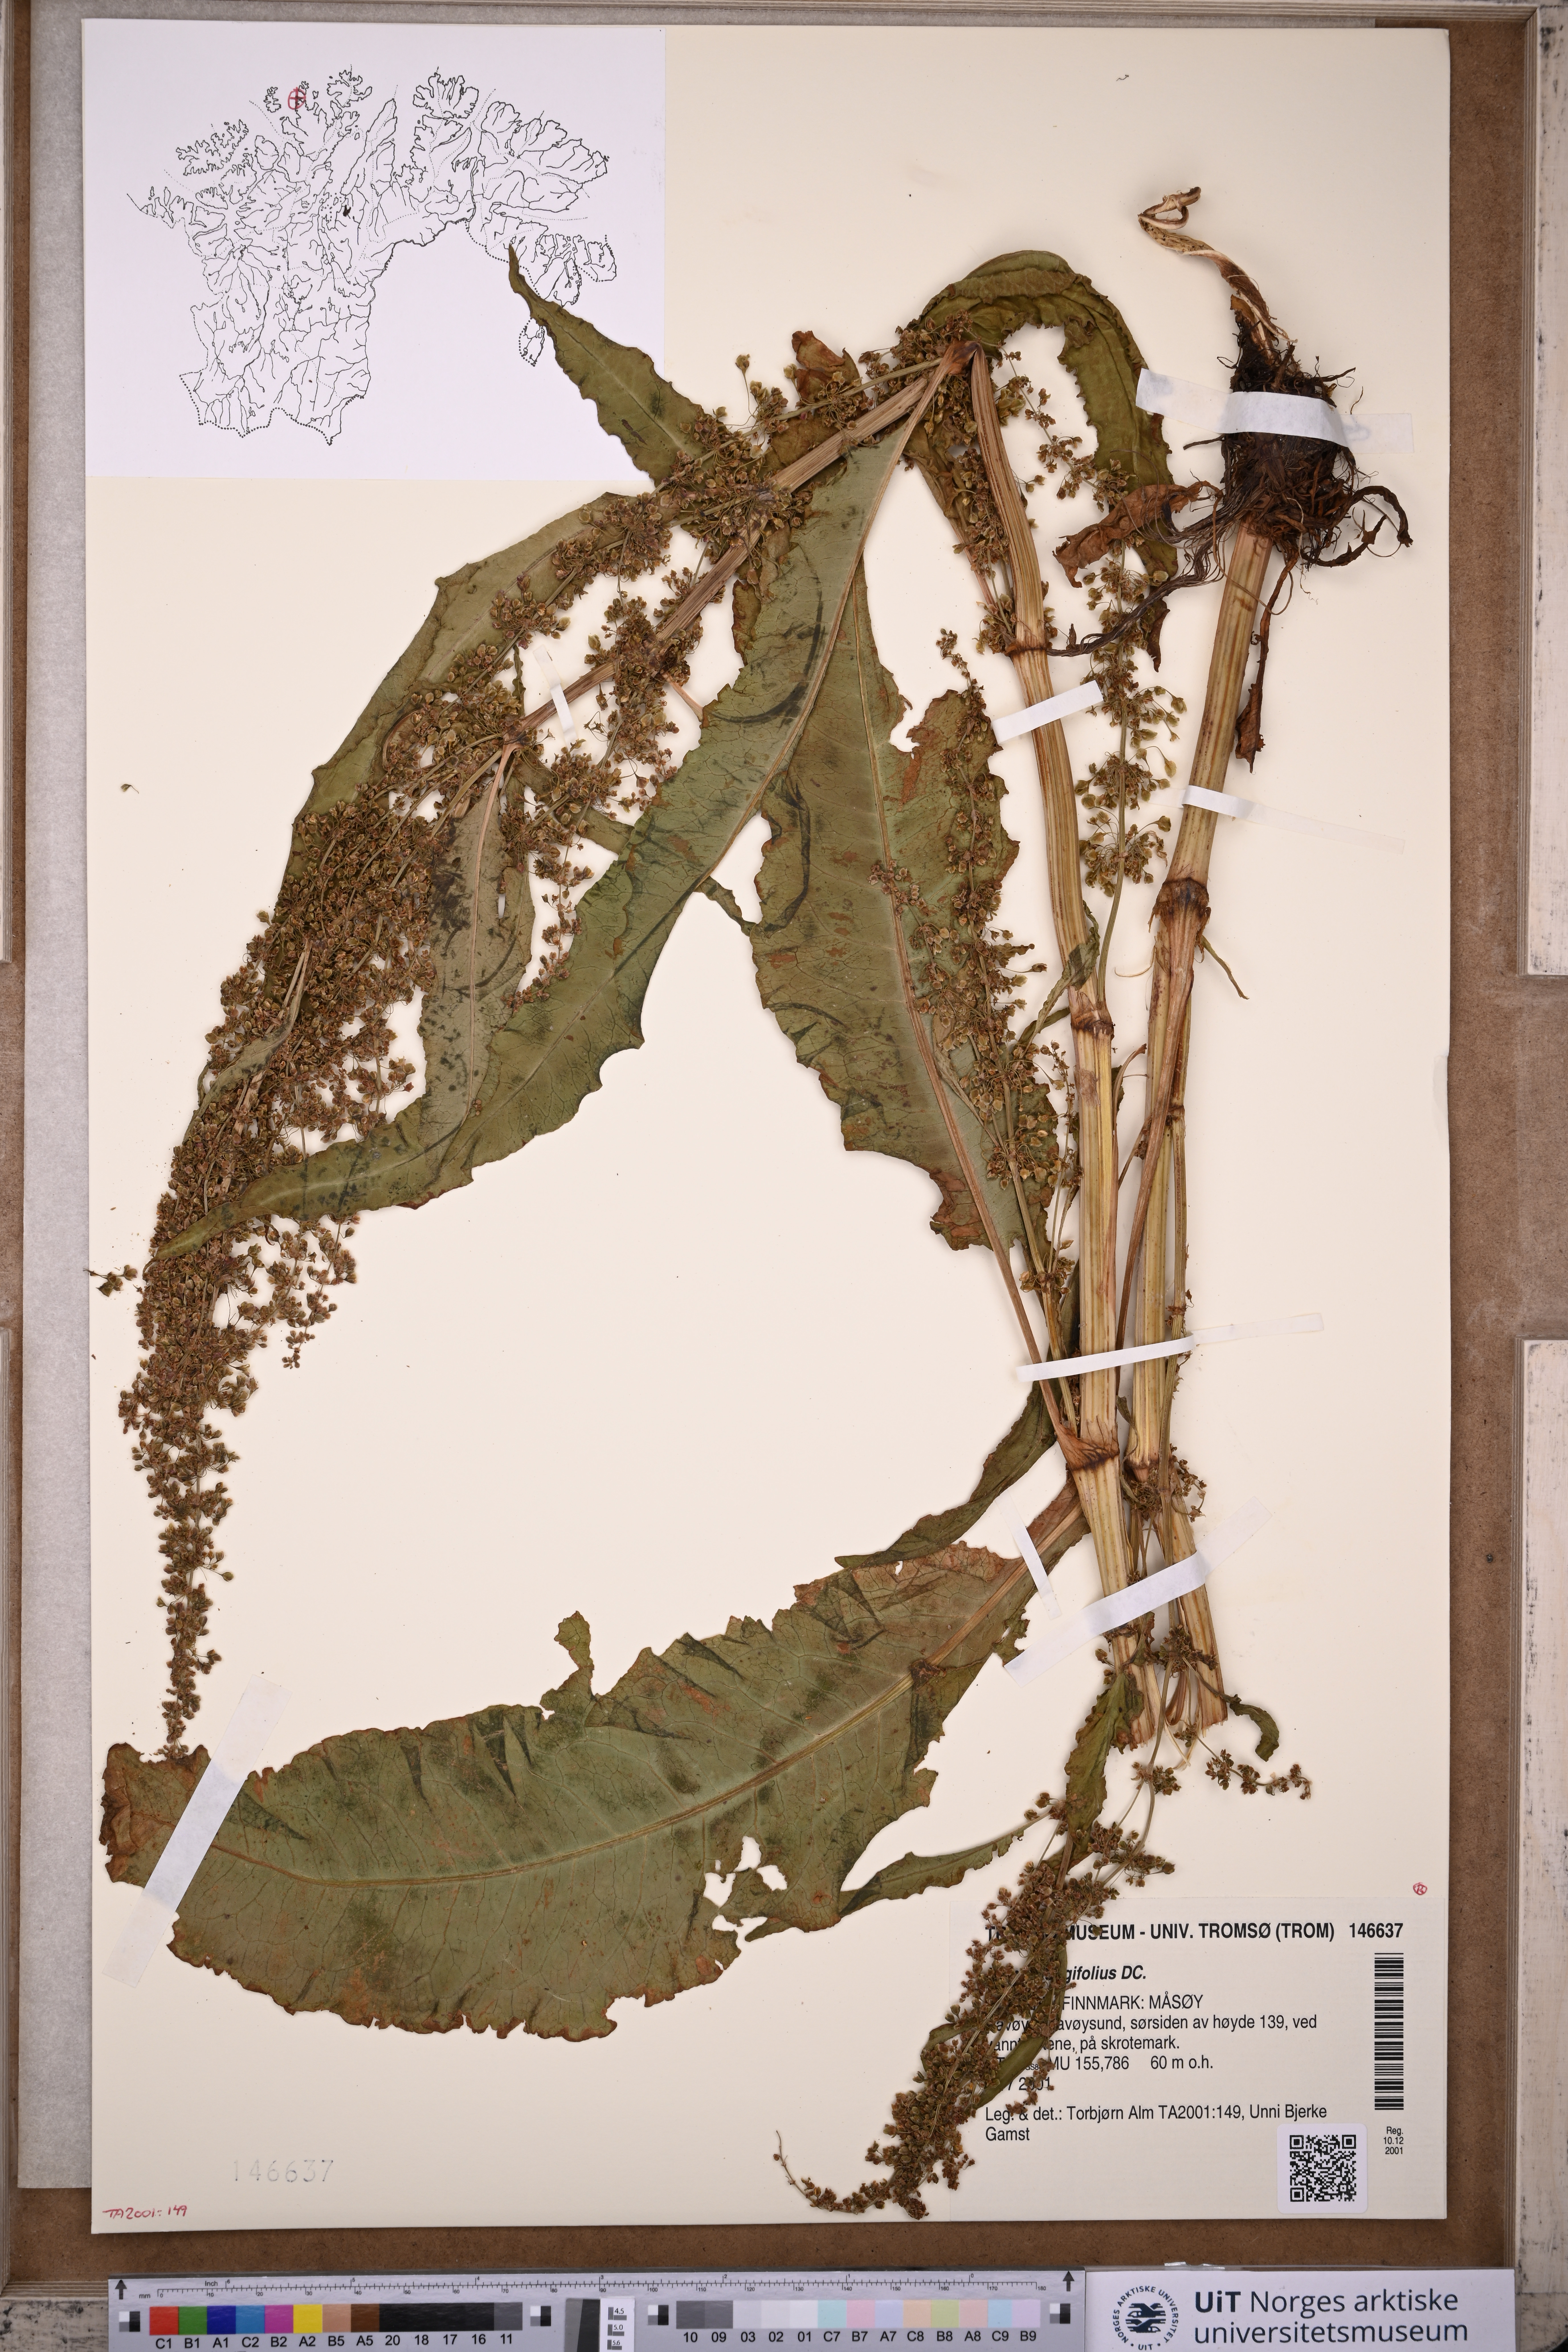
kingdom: Plantae
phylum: Tracheophyta
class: Magnoliopsida
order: Caryophyllales
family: Polygonaceae
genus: Rumex
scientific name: Rumex longifolius
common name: Dooryard dock
